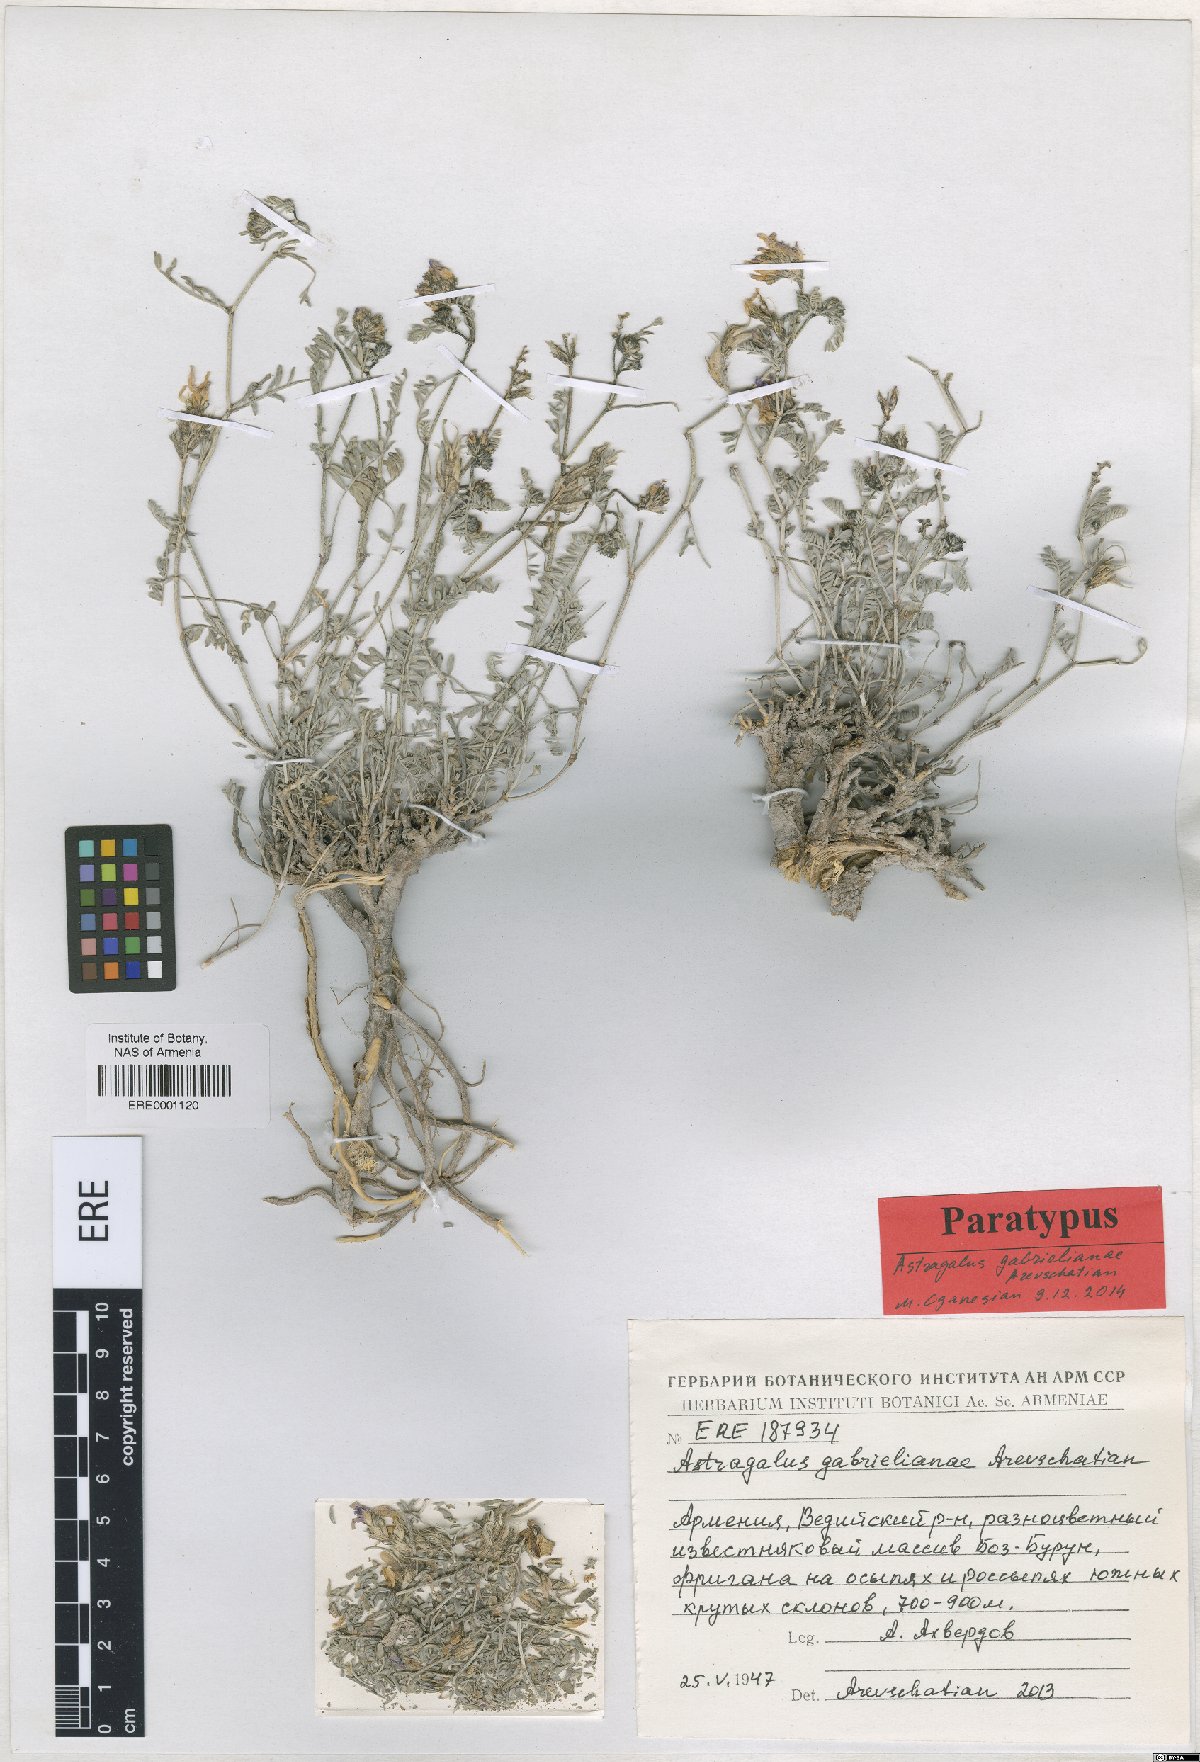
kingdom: Plantae
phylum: Tracheophyta
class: Magnoliopsida
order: Fabales
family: Fabaceae
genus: Astragalus
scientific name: Astragalus gabrelianae
